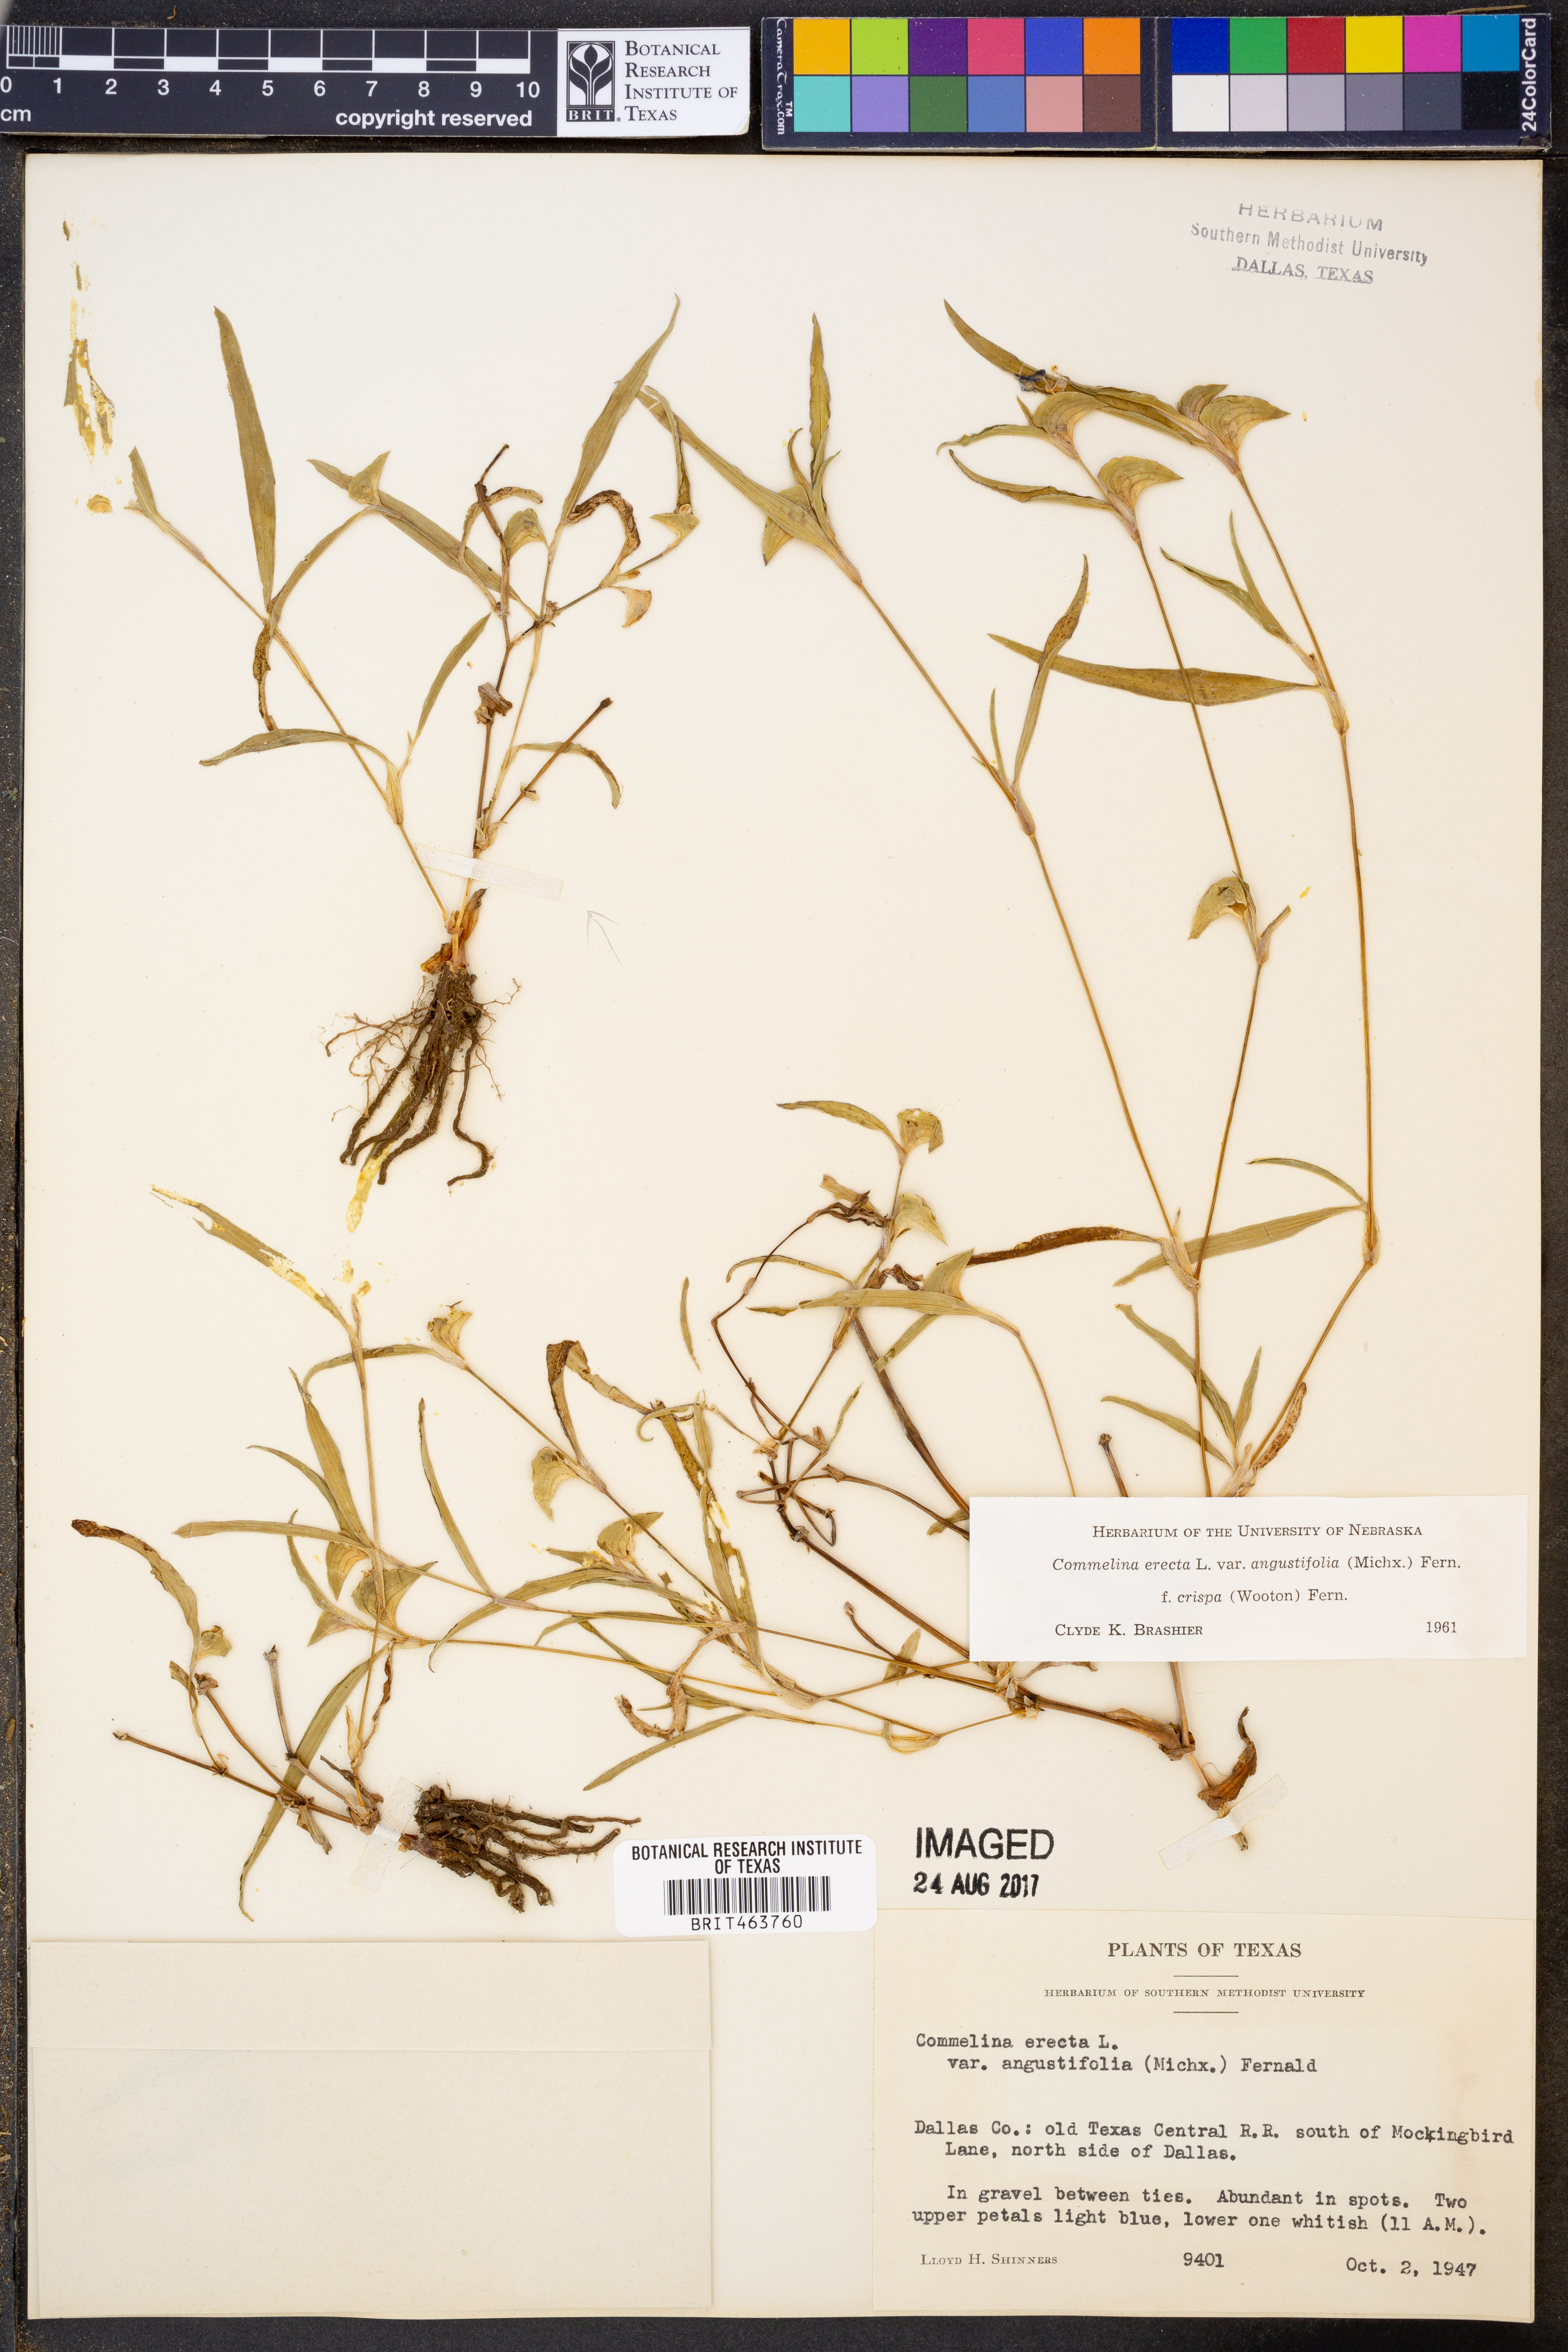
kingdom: Plantae
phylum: Tracheophyta
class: Liliopsida
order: Commelinales
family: Commelinaceae
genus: Commelina
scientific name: Commelina erecta
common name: Blousel blommetjie
